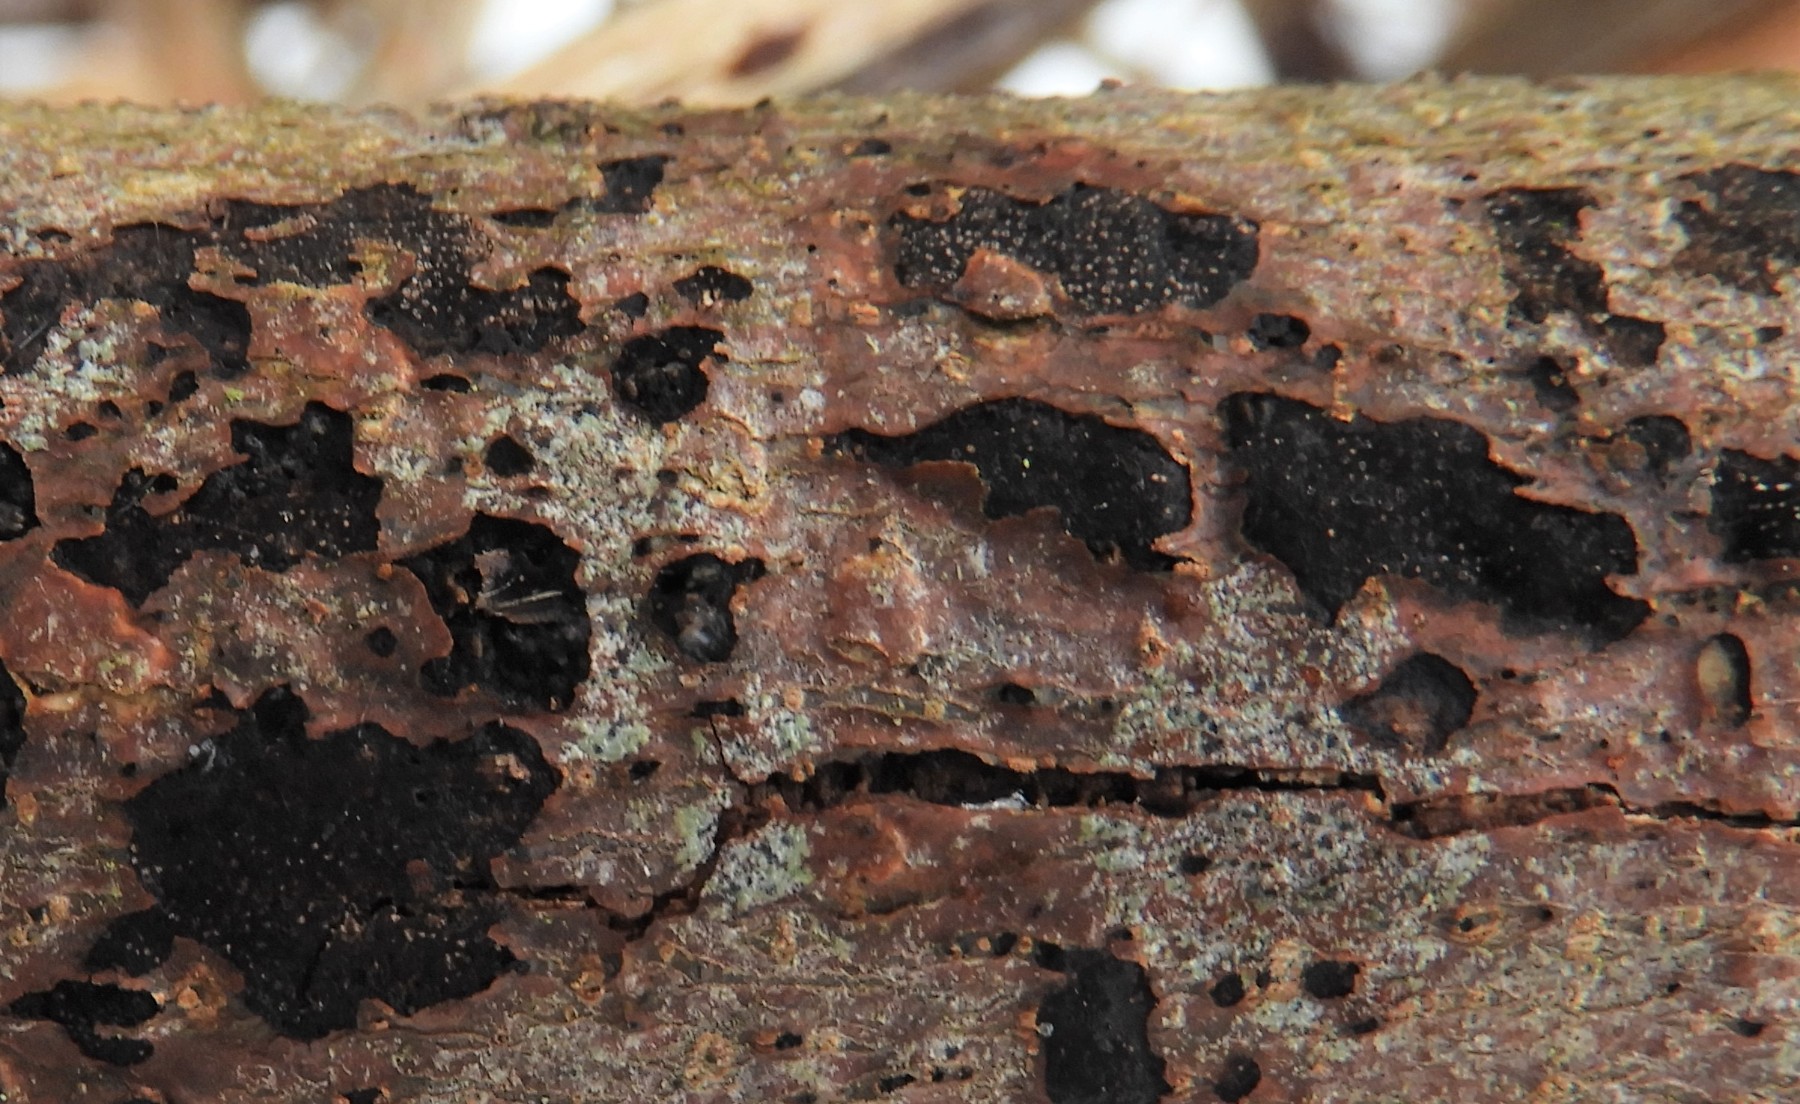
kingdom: Fungi
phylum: Ascomycota
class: Sordariomycetes
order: Xylariales
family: Diatrypaceae
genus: Eutypa
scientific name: Eutypa
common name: kulskorpe
